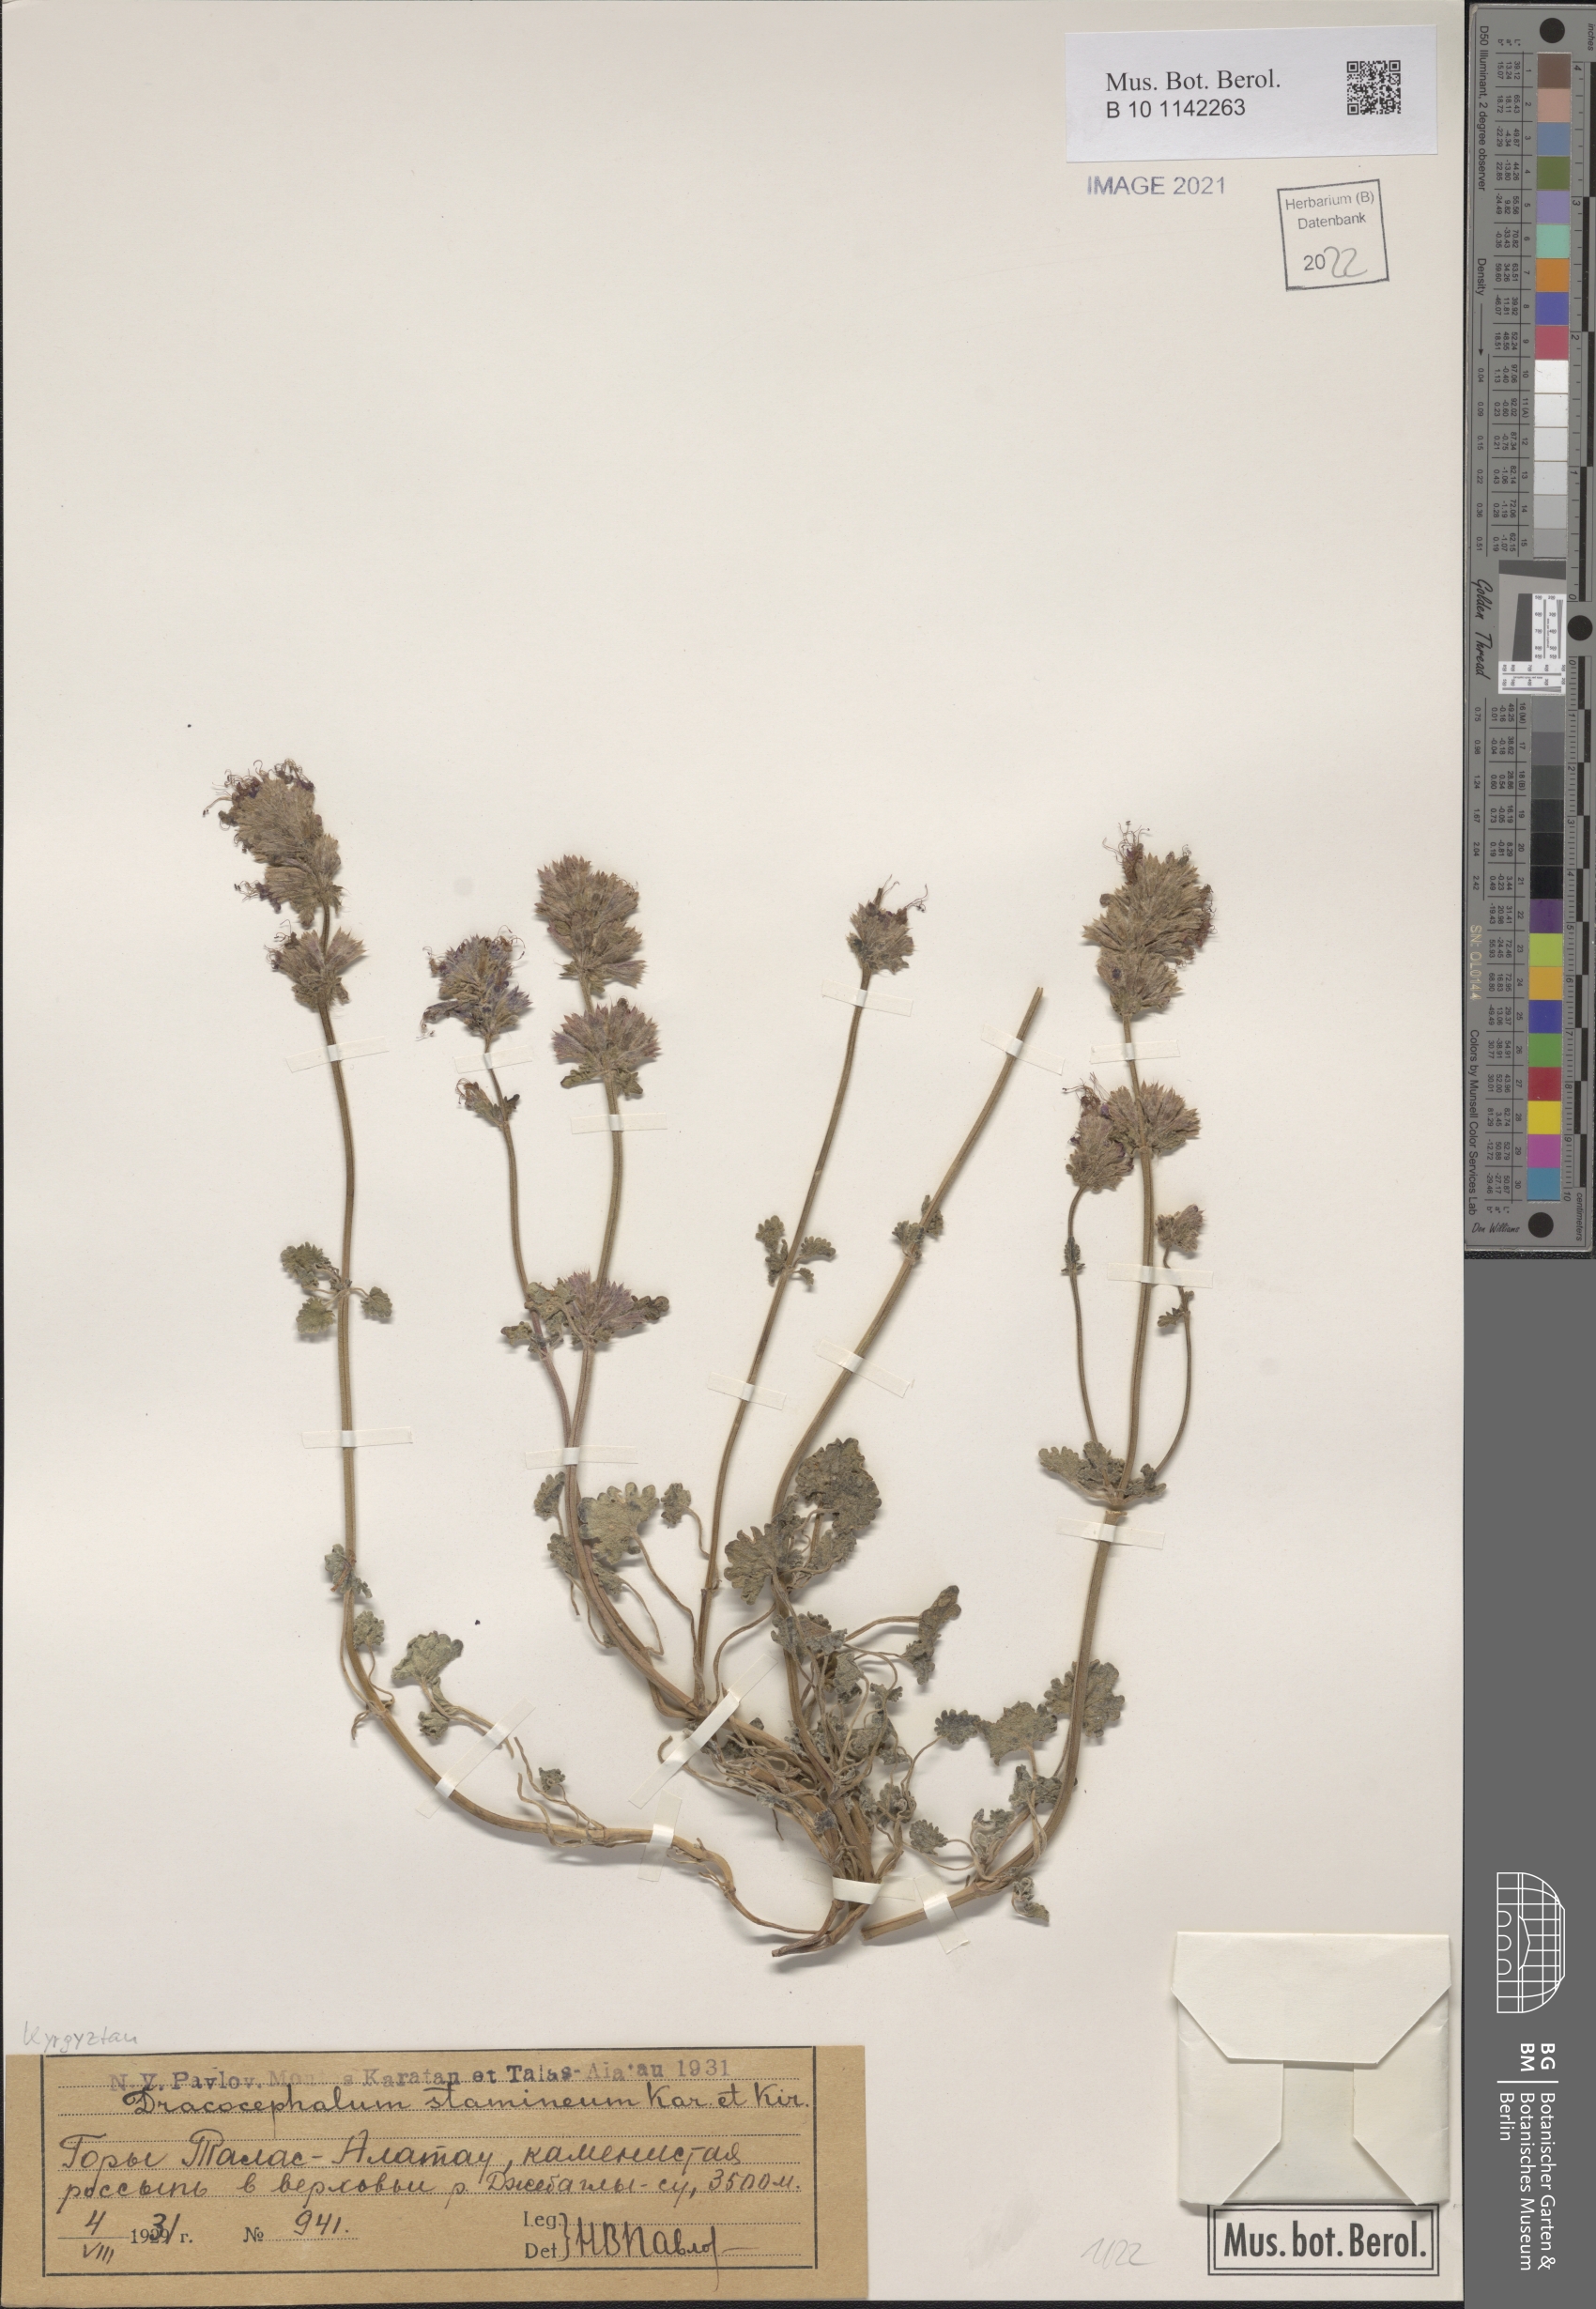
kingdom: Plantae
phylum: Tracheophyta
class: Magnoliopsida
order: Lamiales
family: Lamiaceae
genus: Dracocephalum
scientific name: Dracocephalum stamineum
